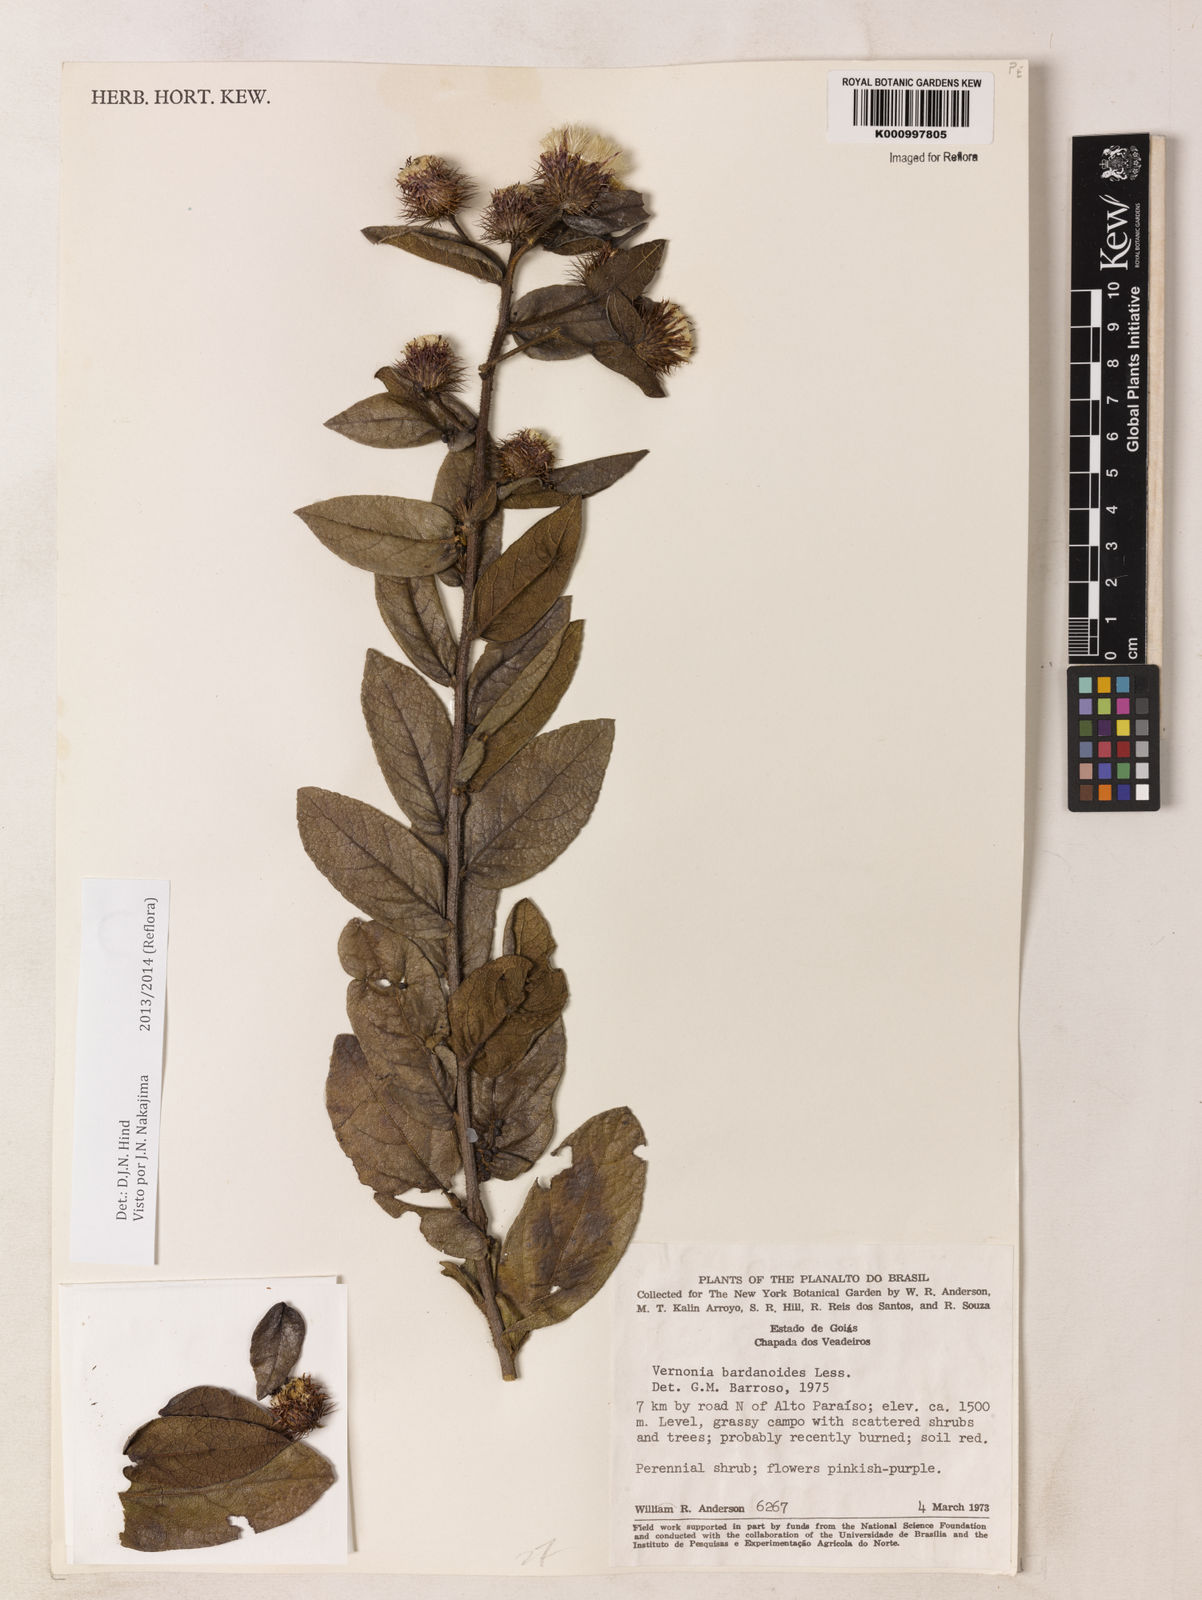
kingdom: Plantae
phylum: Tracheophyta
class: Magnoliopsida
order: Asterales
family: Asteraceae
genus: Lessingianthus
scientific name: Lessingianthus bardanioides
